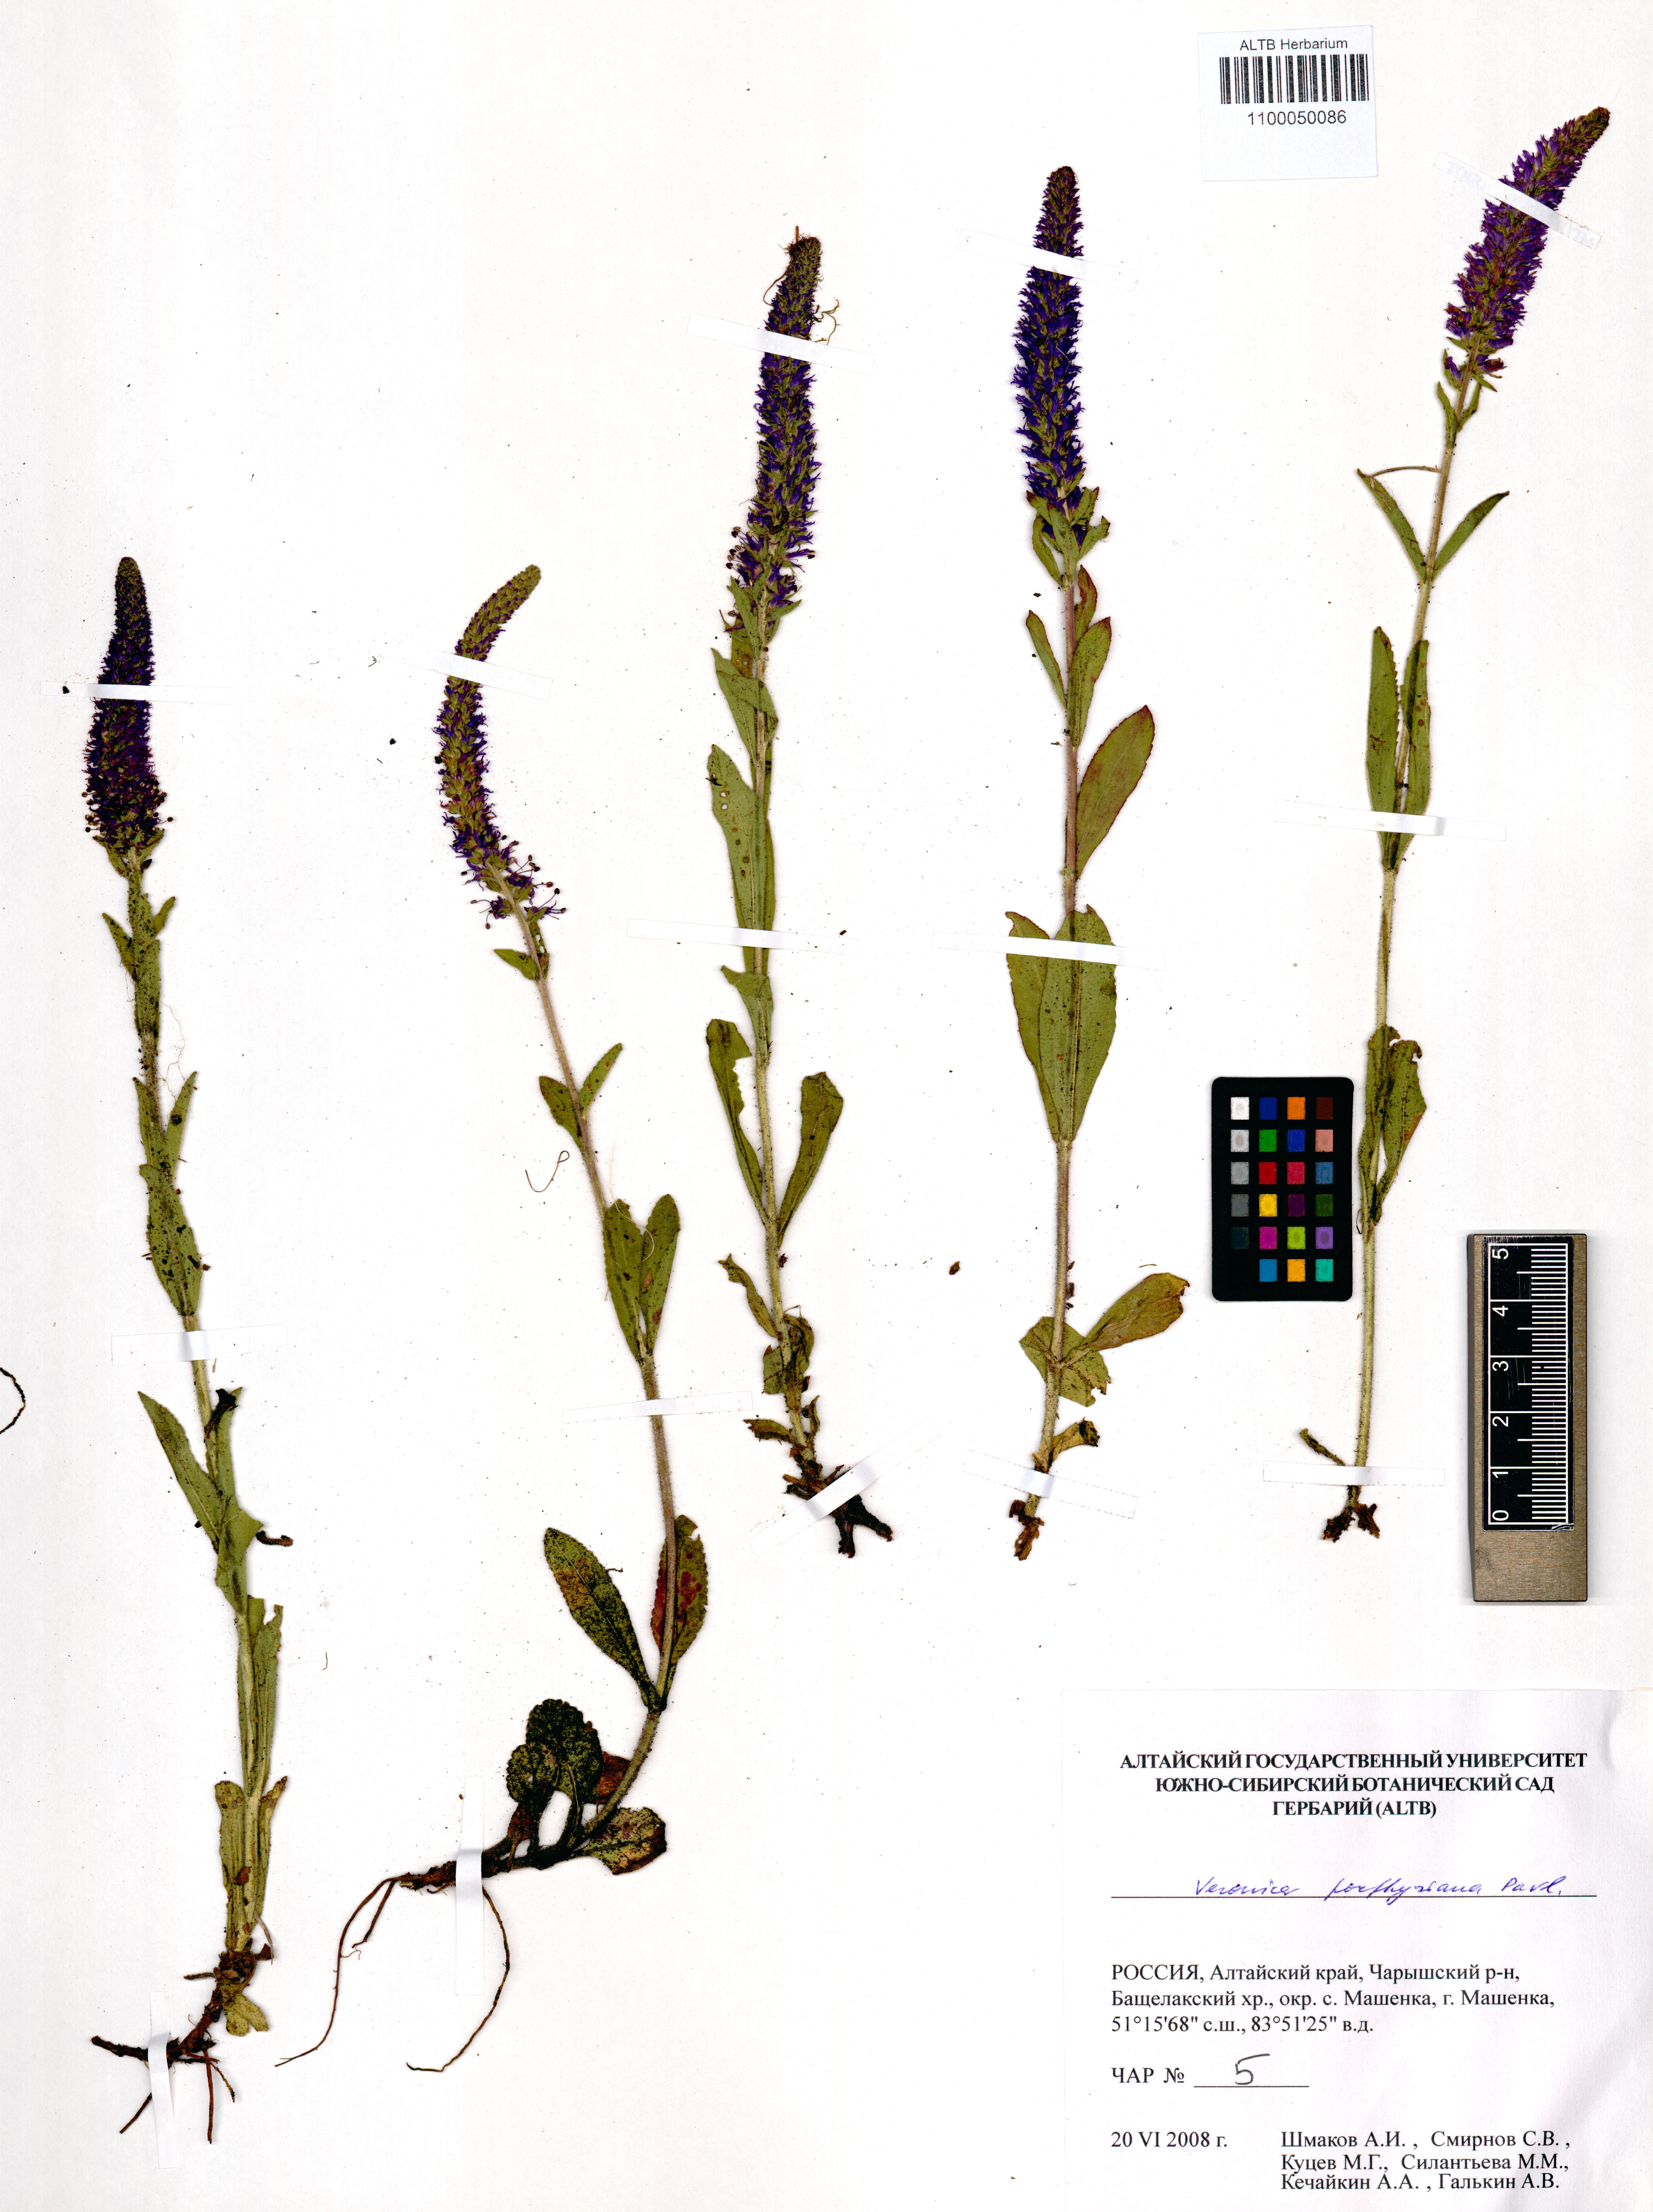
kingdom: Plantae
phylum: Tracheophyta
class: Magnoliopsida
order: Lamiales
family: Plantaginaceae
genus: Veronica
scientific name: Veronica porphyriana
